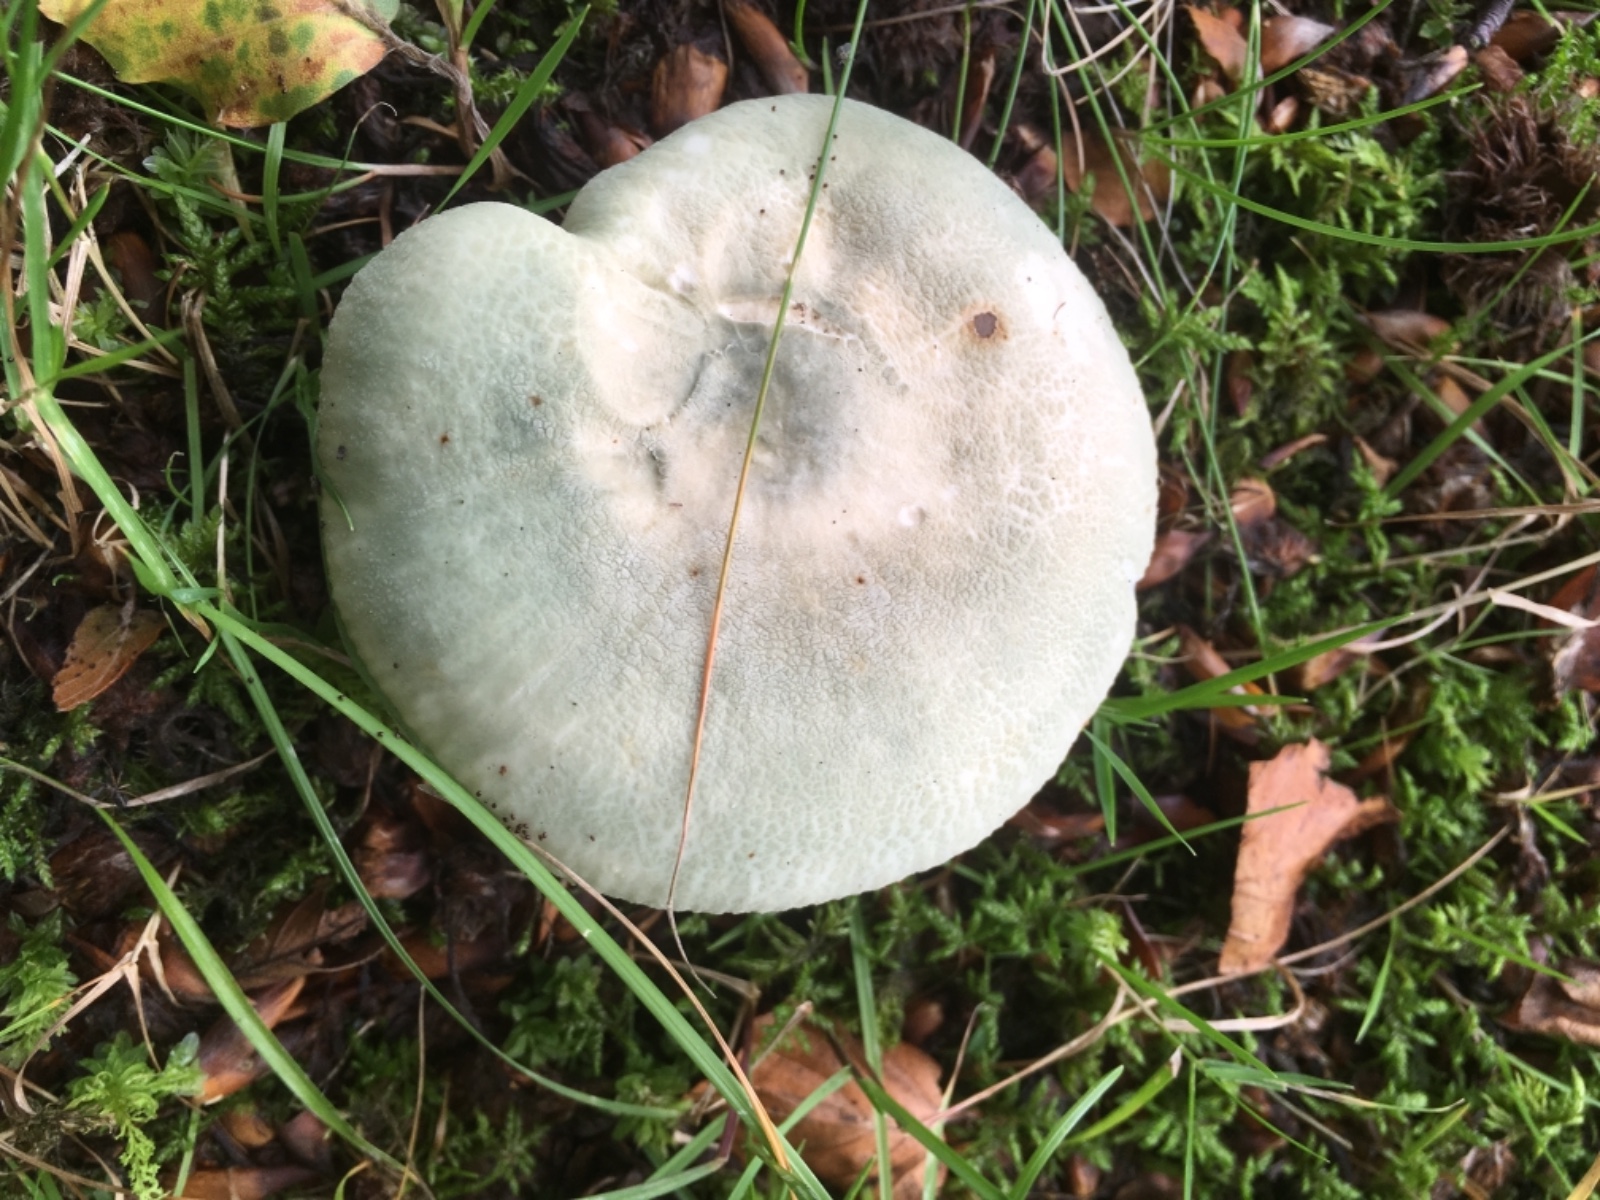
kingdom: Fungi
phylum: Basidiomycota
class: Agaricomycetes
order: Russulales
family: Russulaceae
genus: Russula
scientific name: Russula virescens
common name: spanskgrøn skørhat
